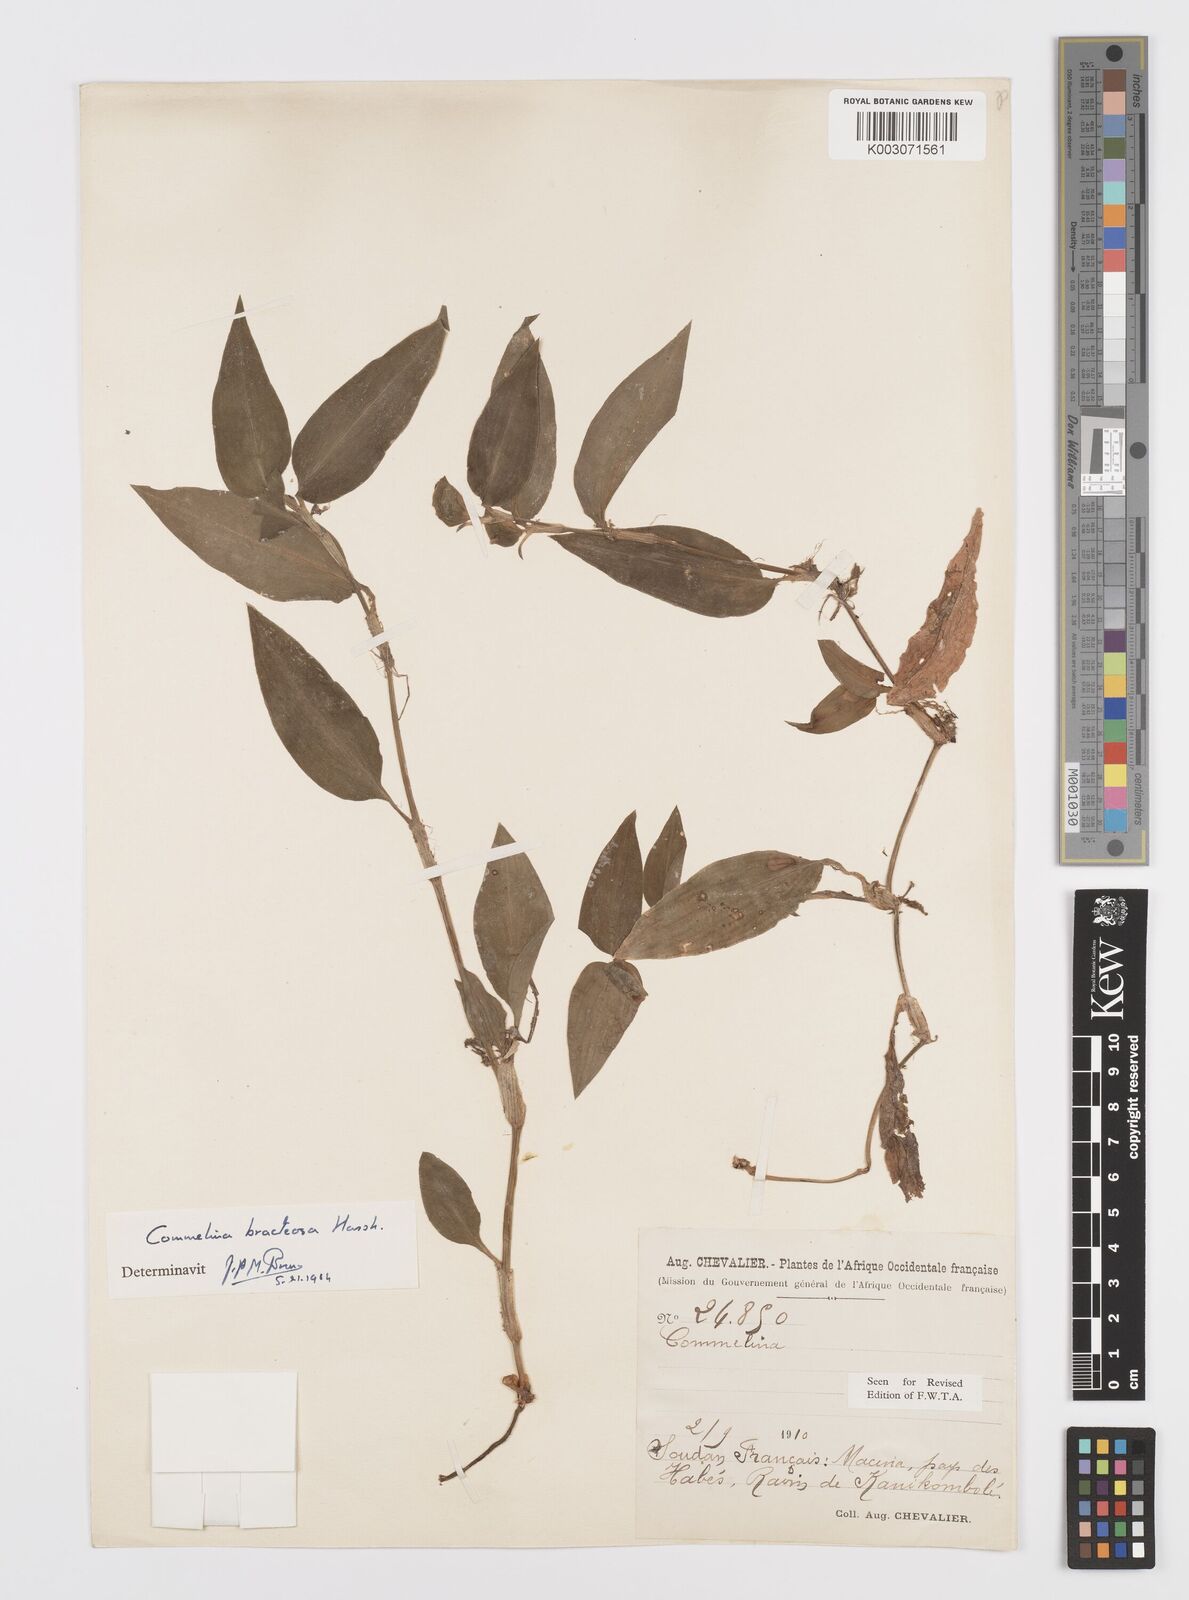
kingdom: Plantae
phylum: Tracheophyta
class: Liliopsida
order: Commelinales
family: Commelinaceae
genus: Commelina
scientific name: Commelina bracteosa
